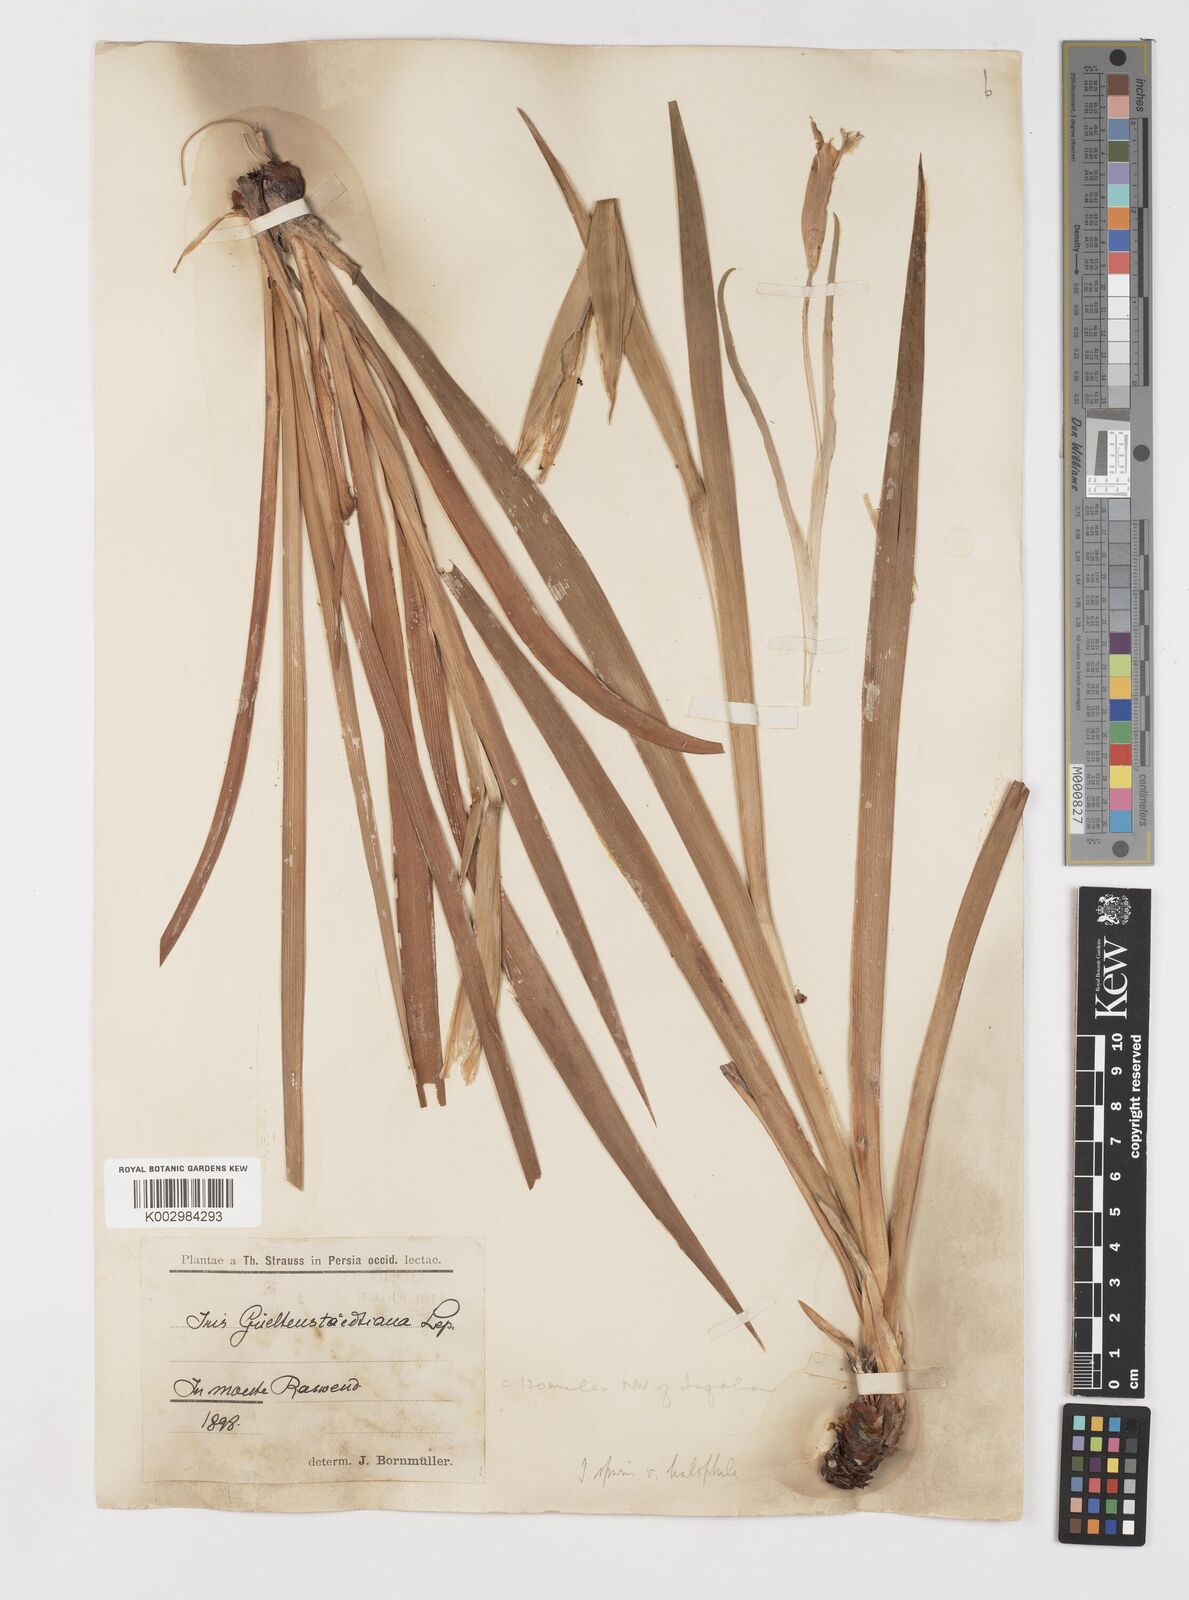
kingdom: Plantae
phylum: Tracheophyta
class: Liliopsida
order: Asparagales
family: Iridaceae
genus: Iris
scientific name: Iris spuria
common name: Blue iris
